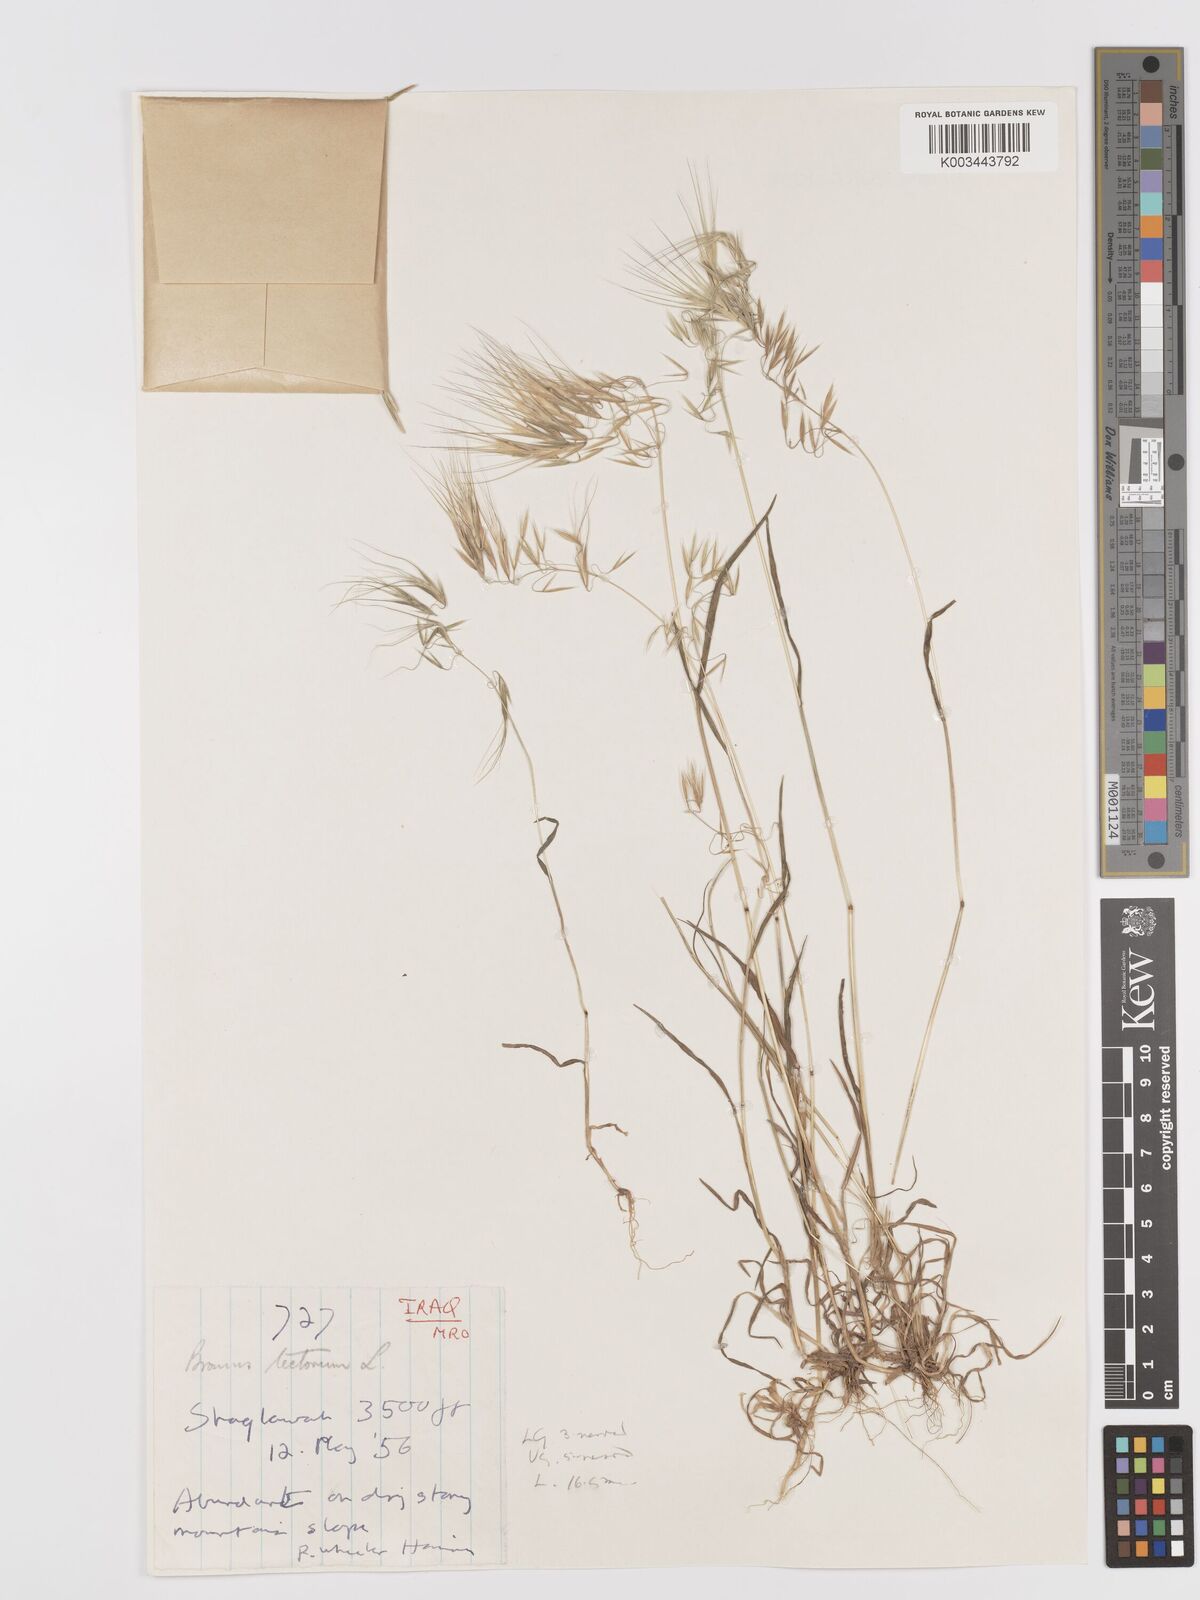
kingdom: Plantae
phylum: Tracheophyta
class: Liliopsida
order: Poales
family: Poaceae
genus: Bromus
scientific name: Bromus tectorum
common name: Cheatgrass
